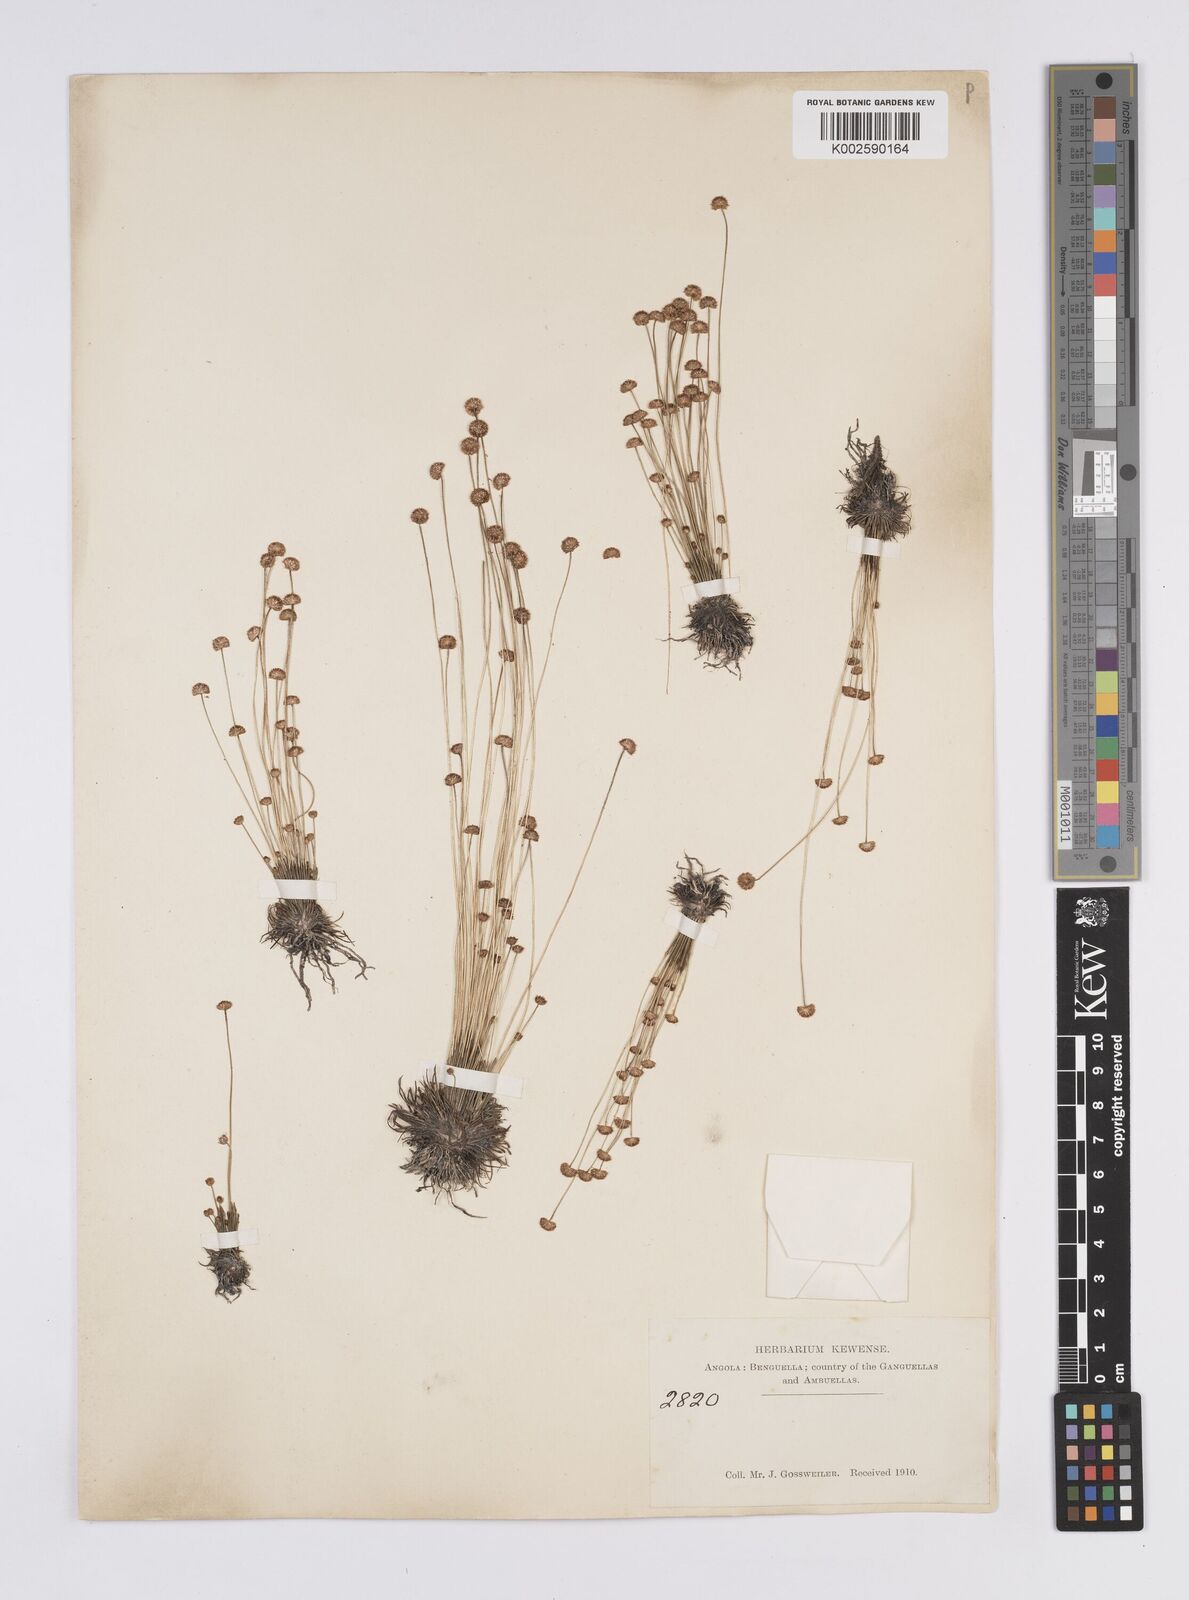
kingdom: Plantae
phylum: Tracheophyta
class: Liliopsida
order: Poales
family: Eriocaulaceae
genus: Syngonanthus
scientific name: Syngonanthus wahlbergii
